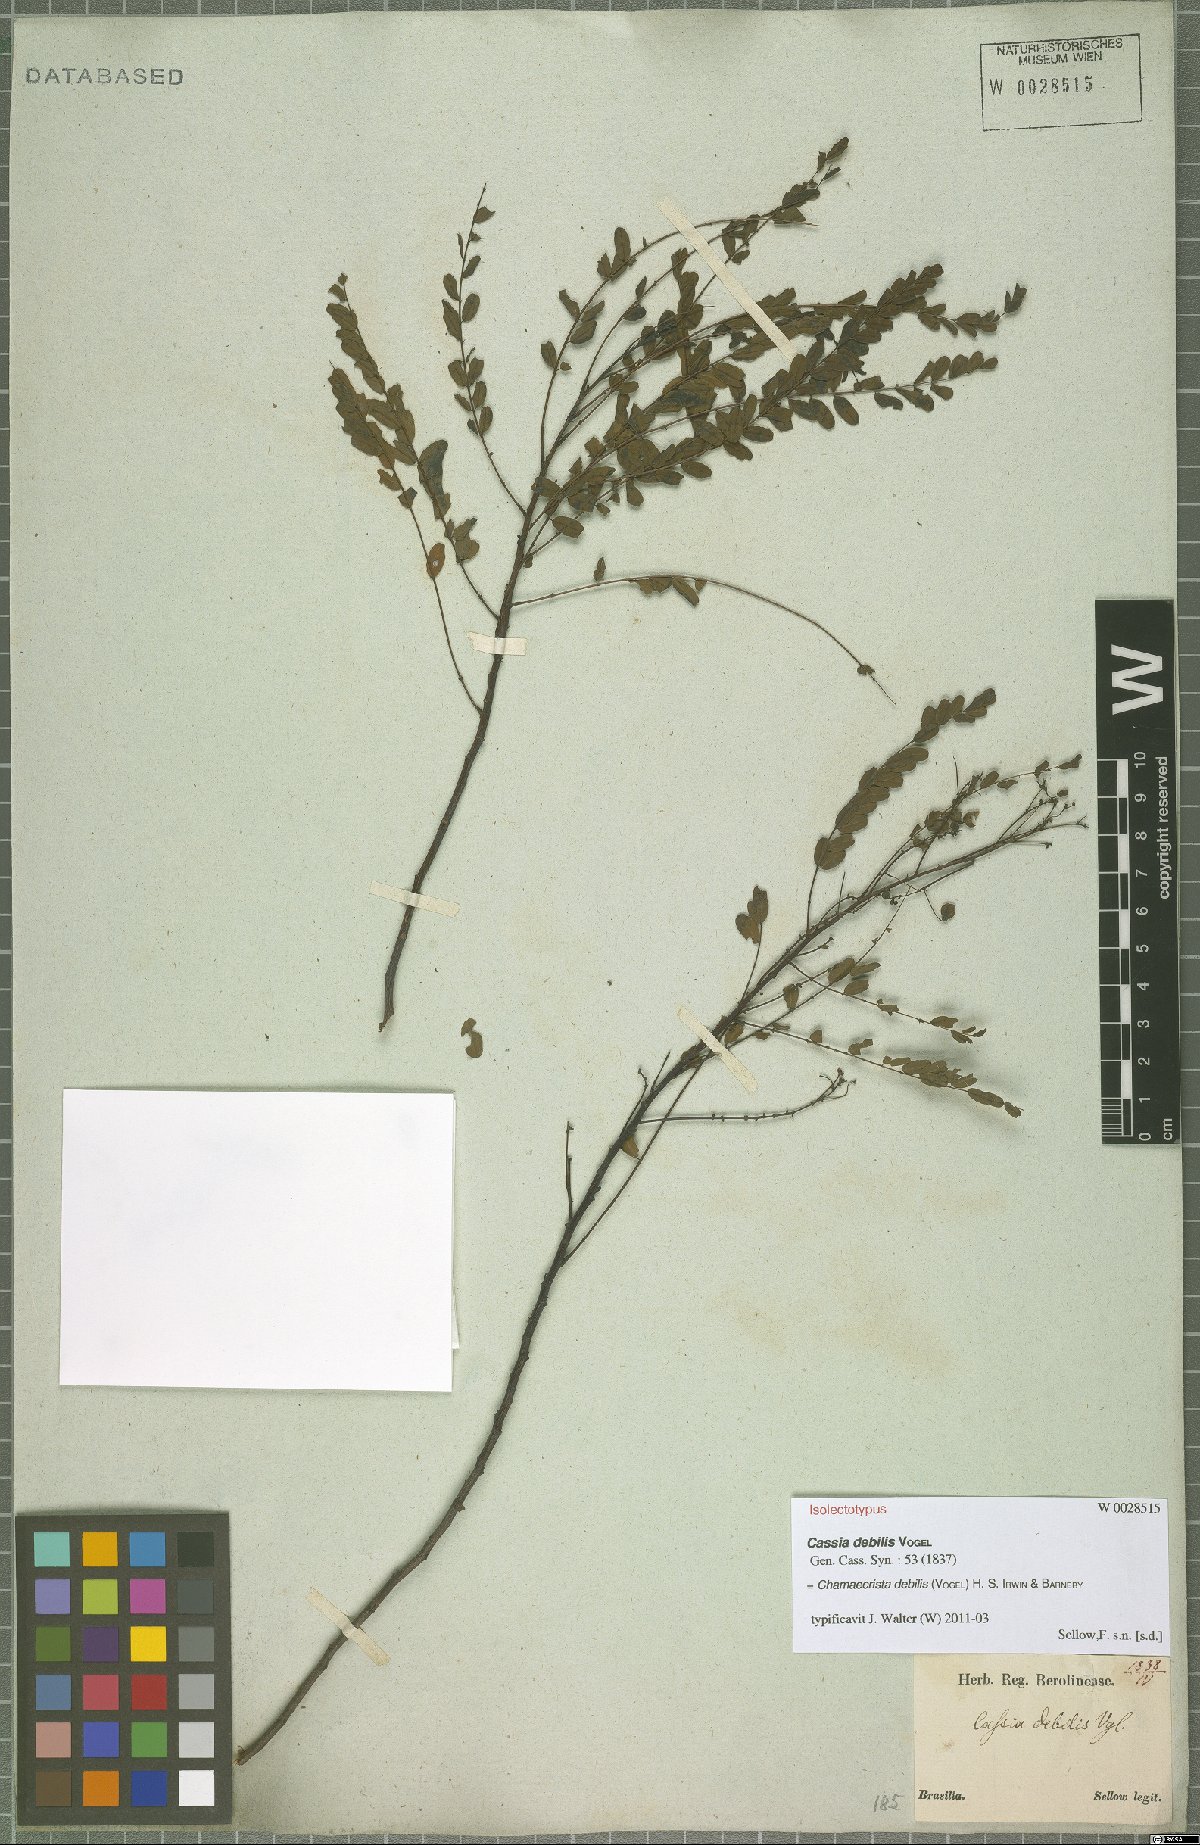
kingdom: Plantae
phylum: Tracheophyta
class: Magnoliopsida
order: Fabales
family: Fabaceae
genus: Chamaecrista
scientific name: Chamaecrista debilis
